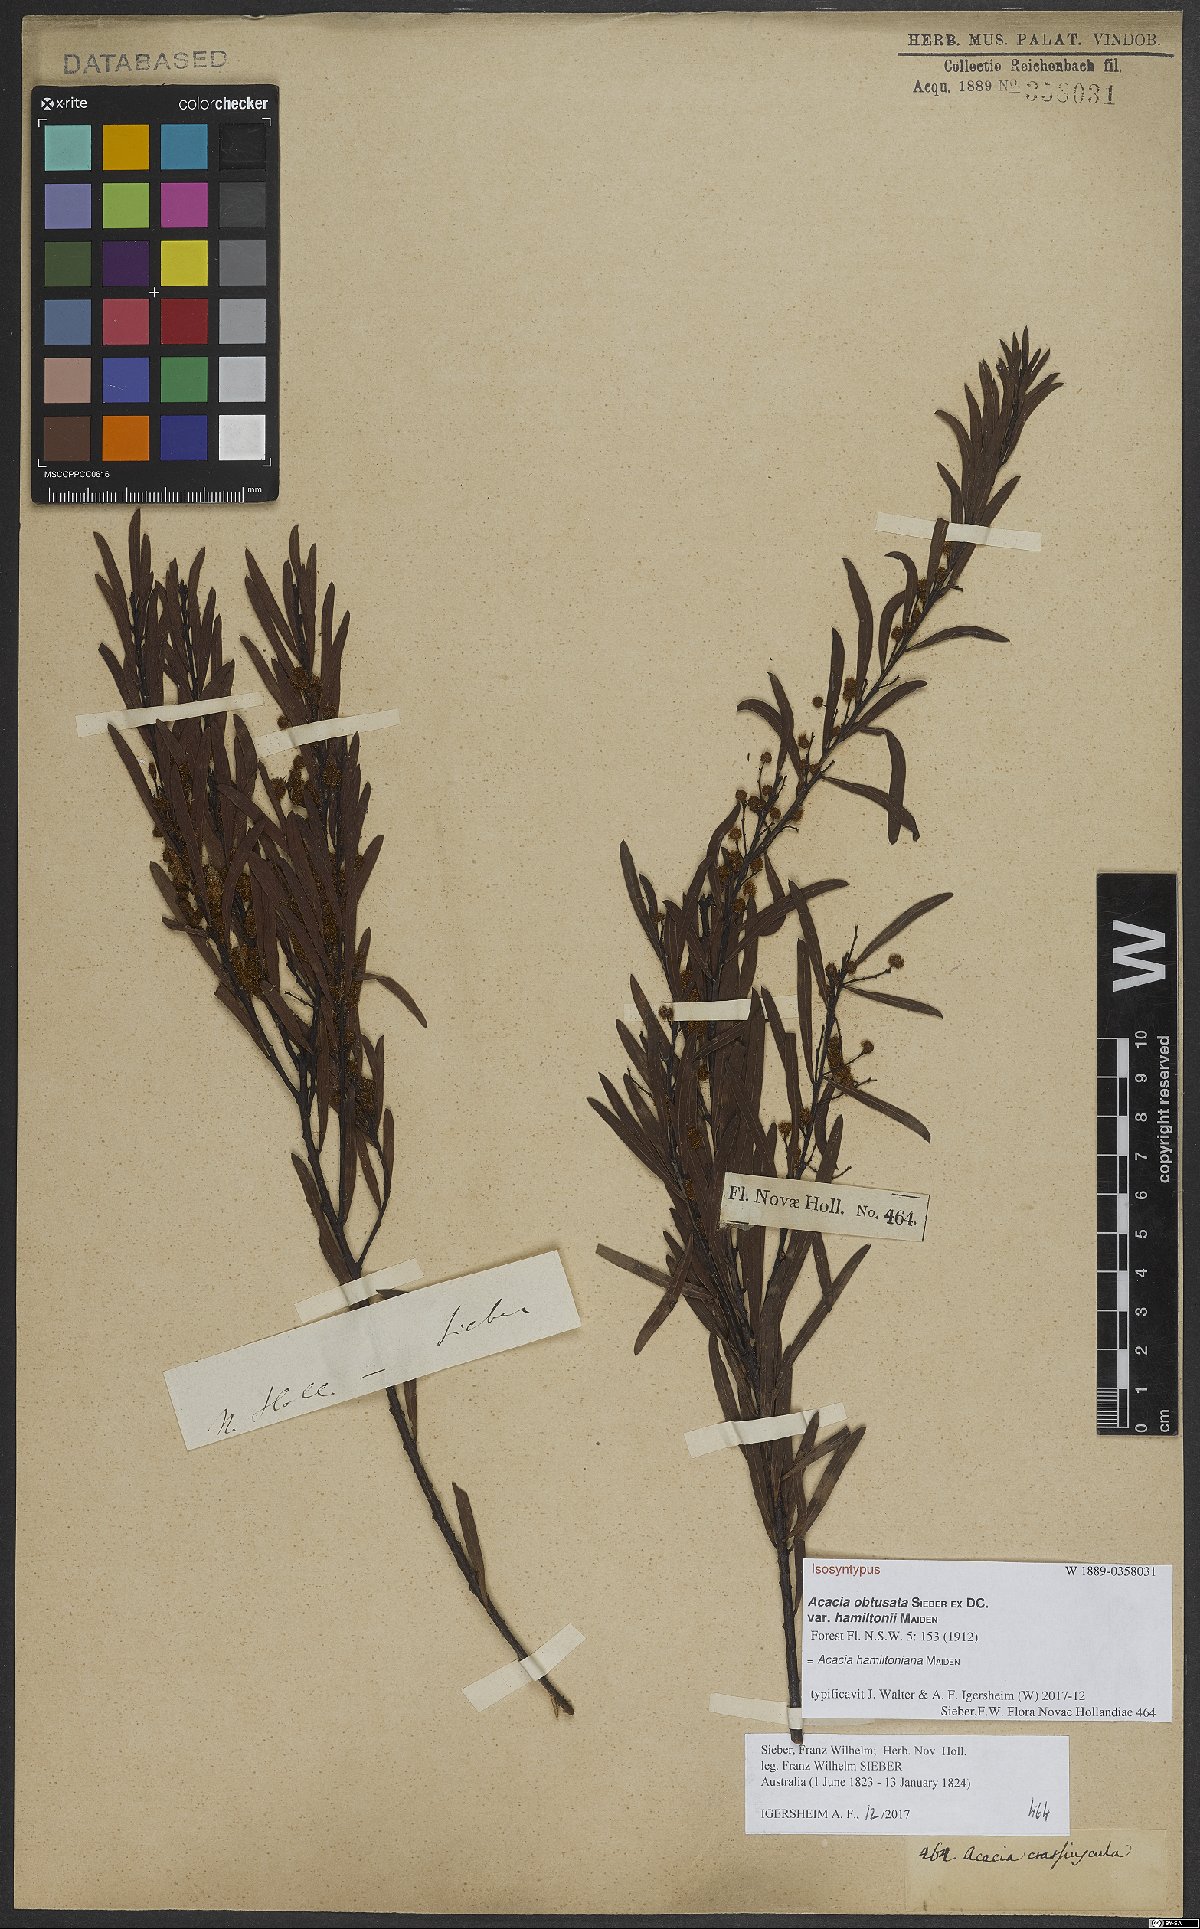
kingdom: Plantae
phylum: Tracheophyta
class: Magnoliopsida
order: Fabales
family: Fabaceae
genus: Acacia
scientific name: Acacia hamiltoniana
